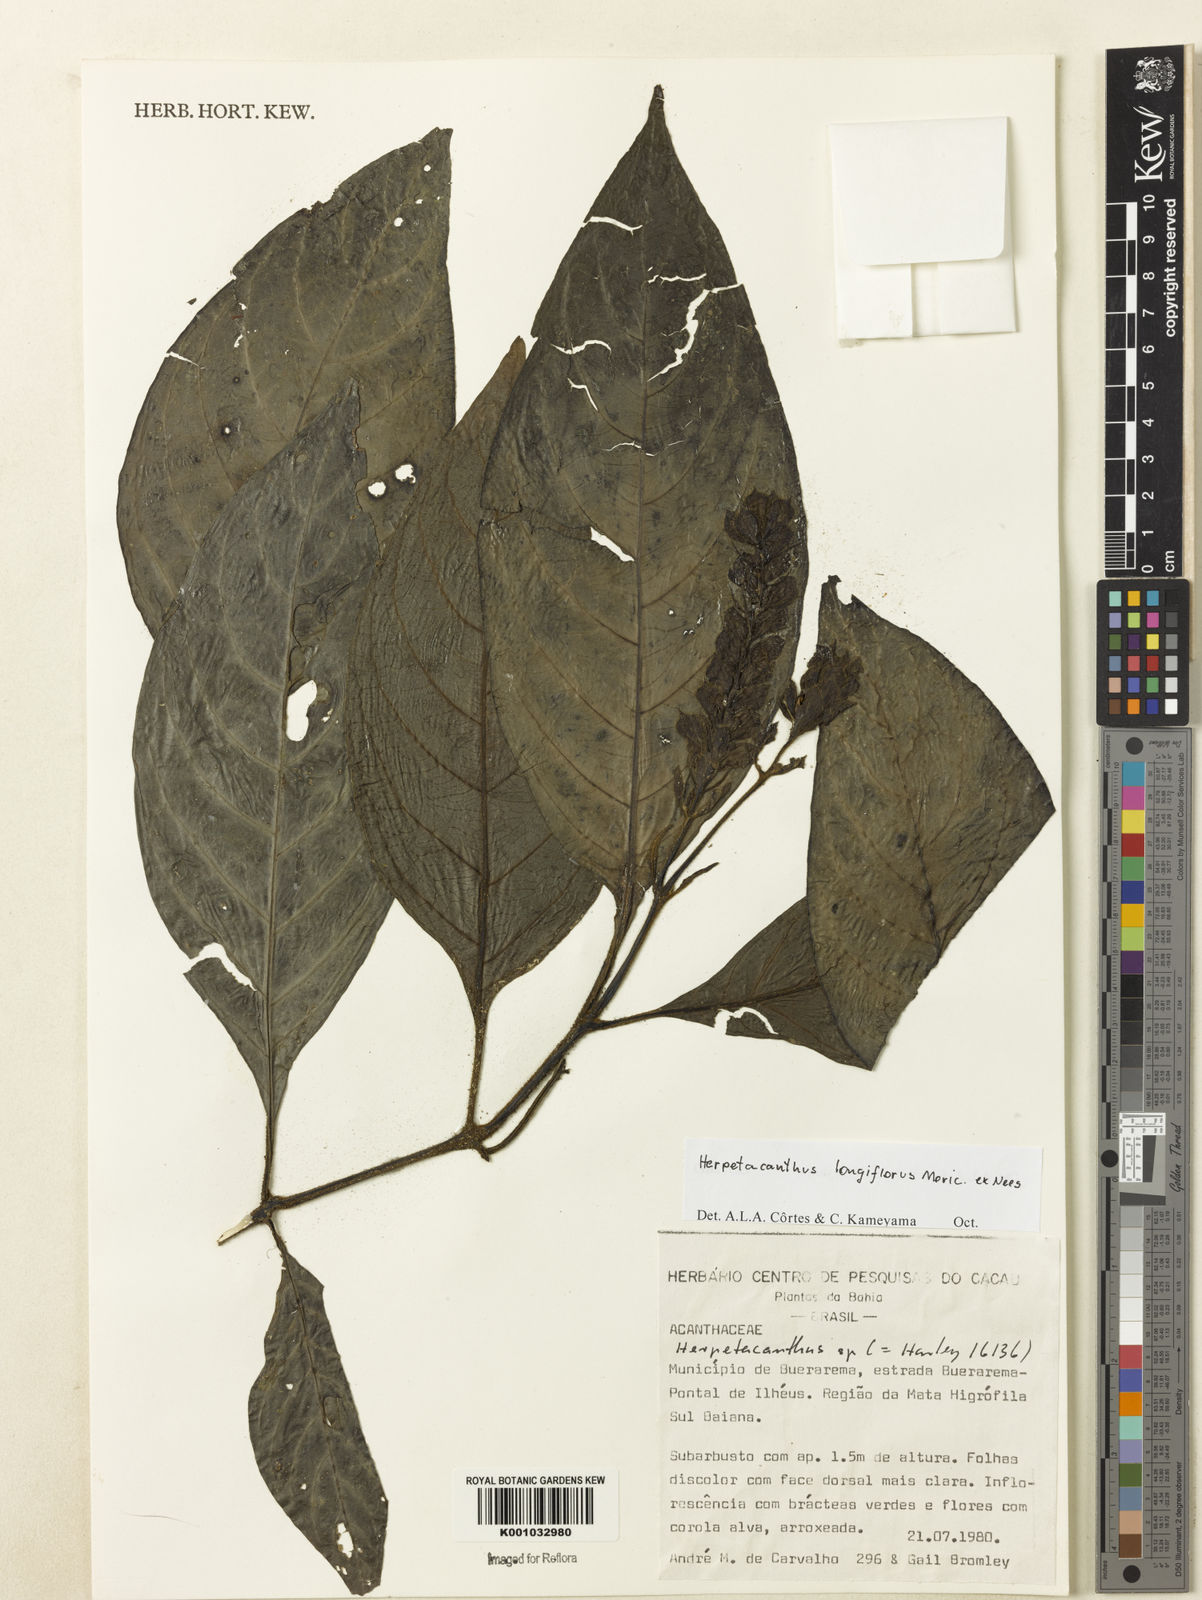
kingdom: Plantae
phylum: Tracheophyta
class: Magnoliopsida
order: Lamiales
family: Acanthaceae
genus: Herpetacanthus
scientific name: Herpetacanthus longiflorus
